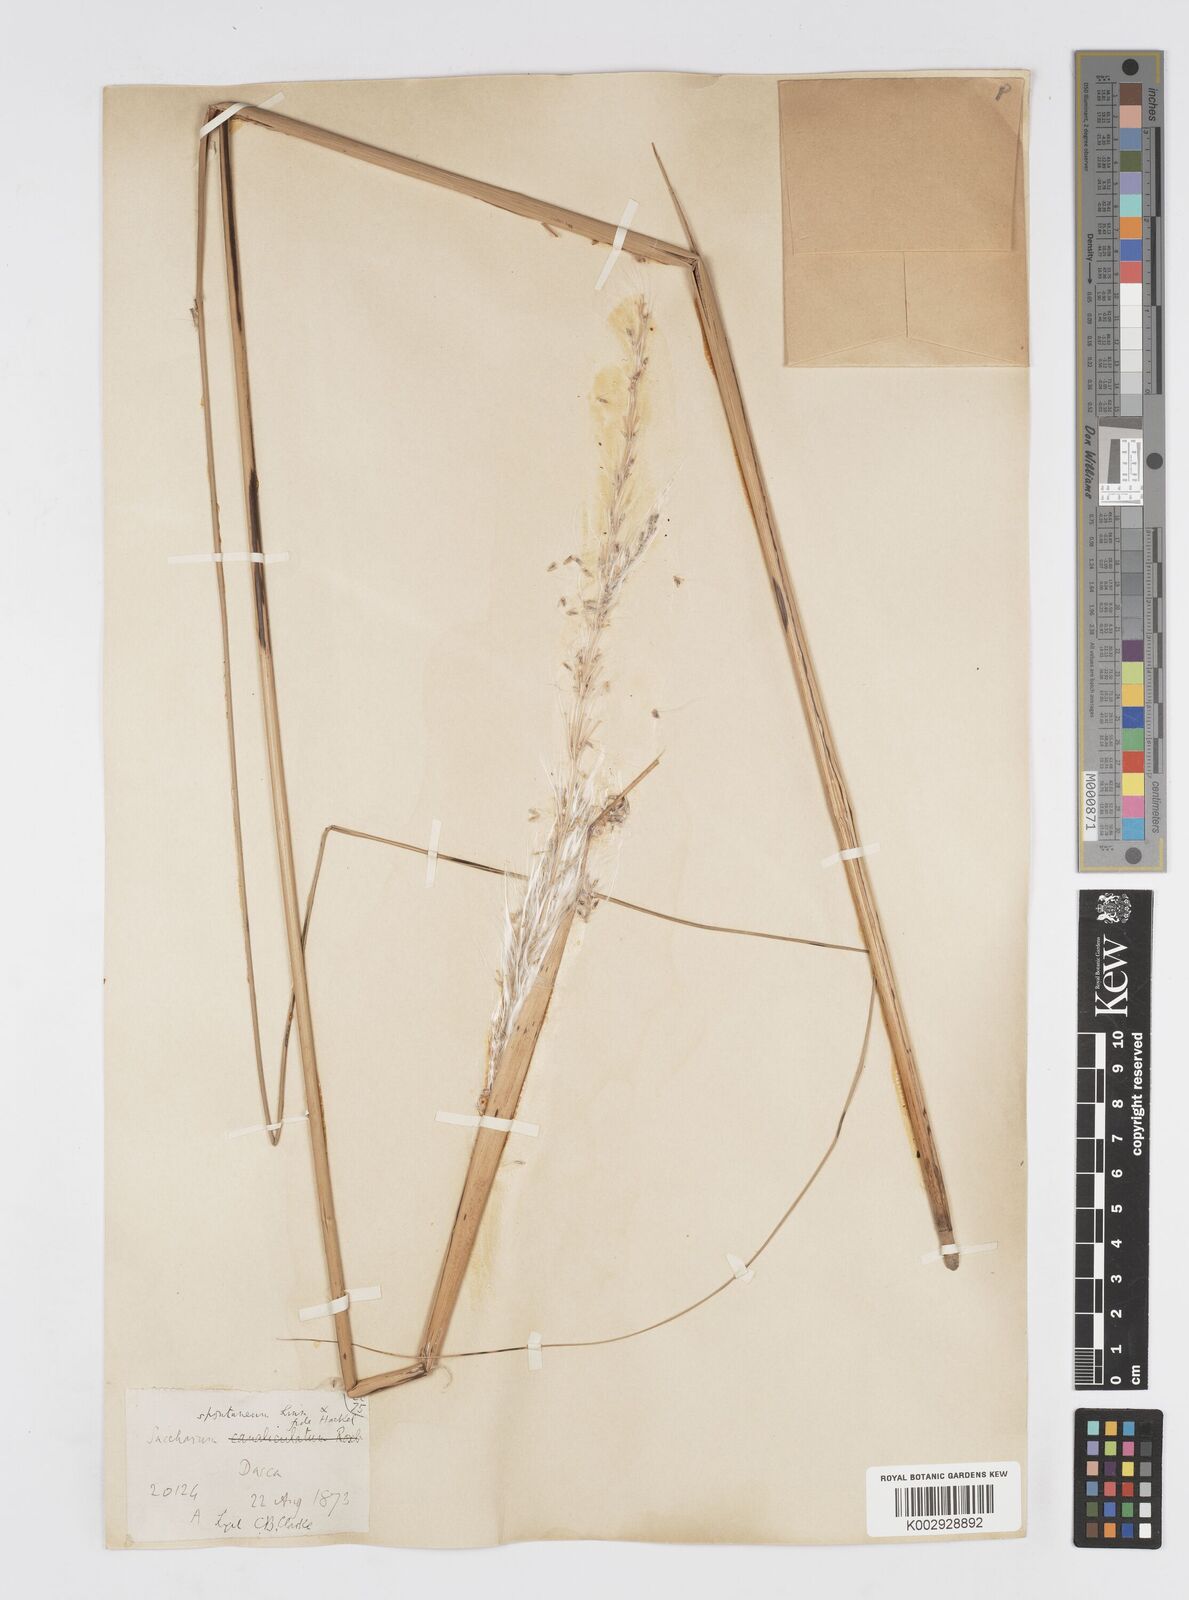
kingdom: Plantae
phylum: Tracheophyta
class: Liliopsida
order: Poales
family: Poaceae
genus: Saccharum
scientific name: Saccharum spontaneum
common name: Wild sugarcane
